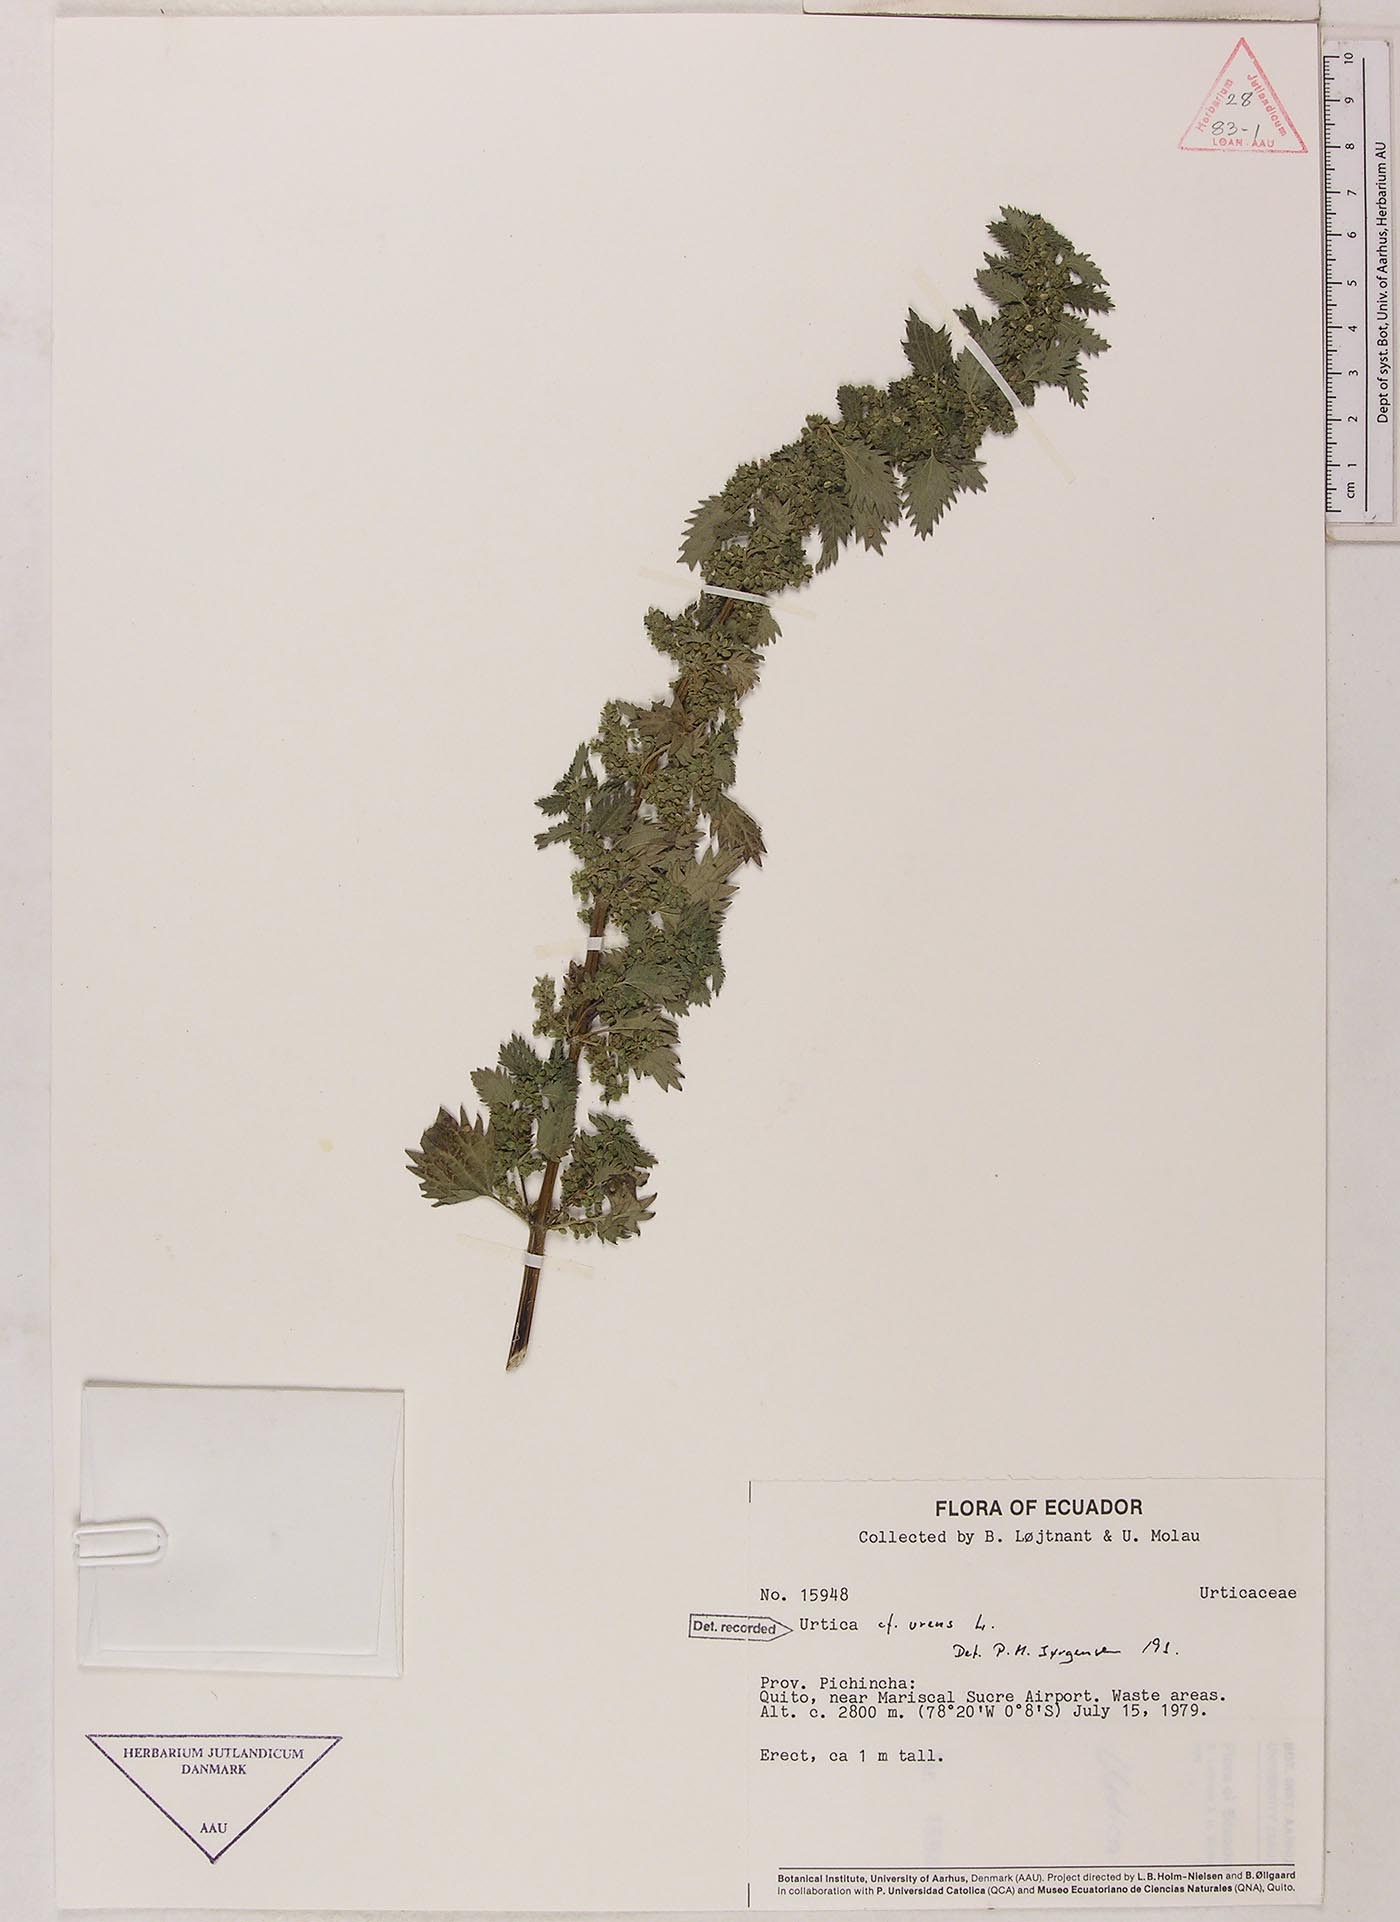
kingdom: Plantae
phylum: Tracheophyta
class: Magnoliopsida
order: Rosales
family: Urticaceae
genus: Urtica
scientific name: Urtica urens
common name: Dwarf nettle
